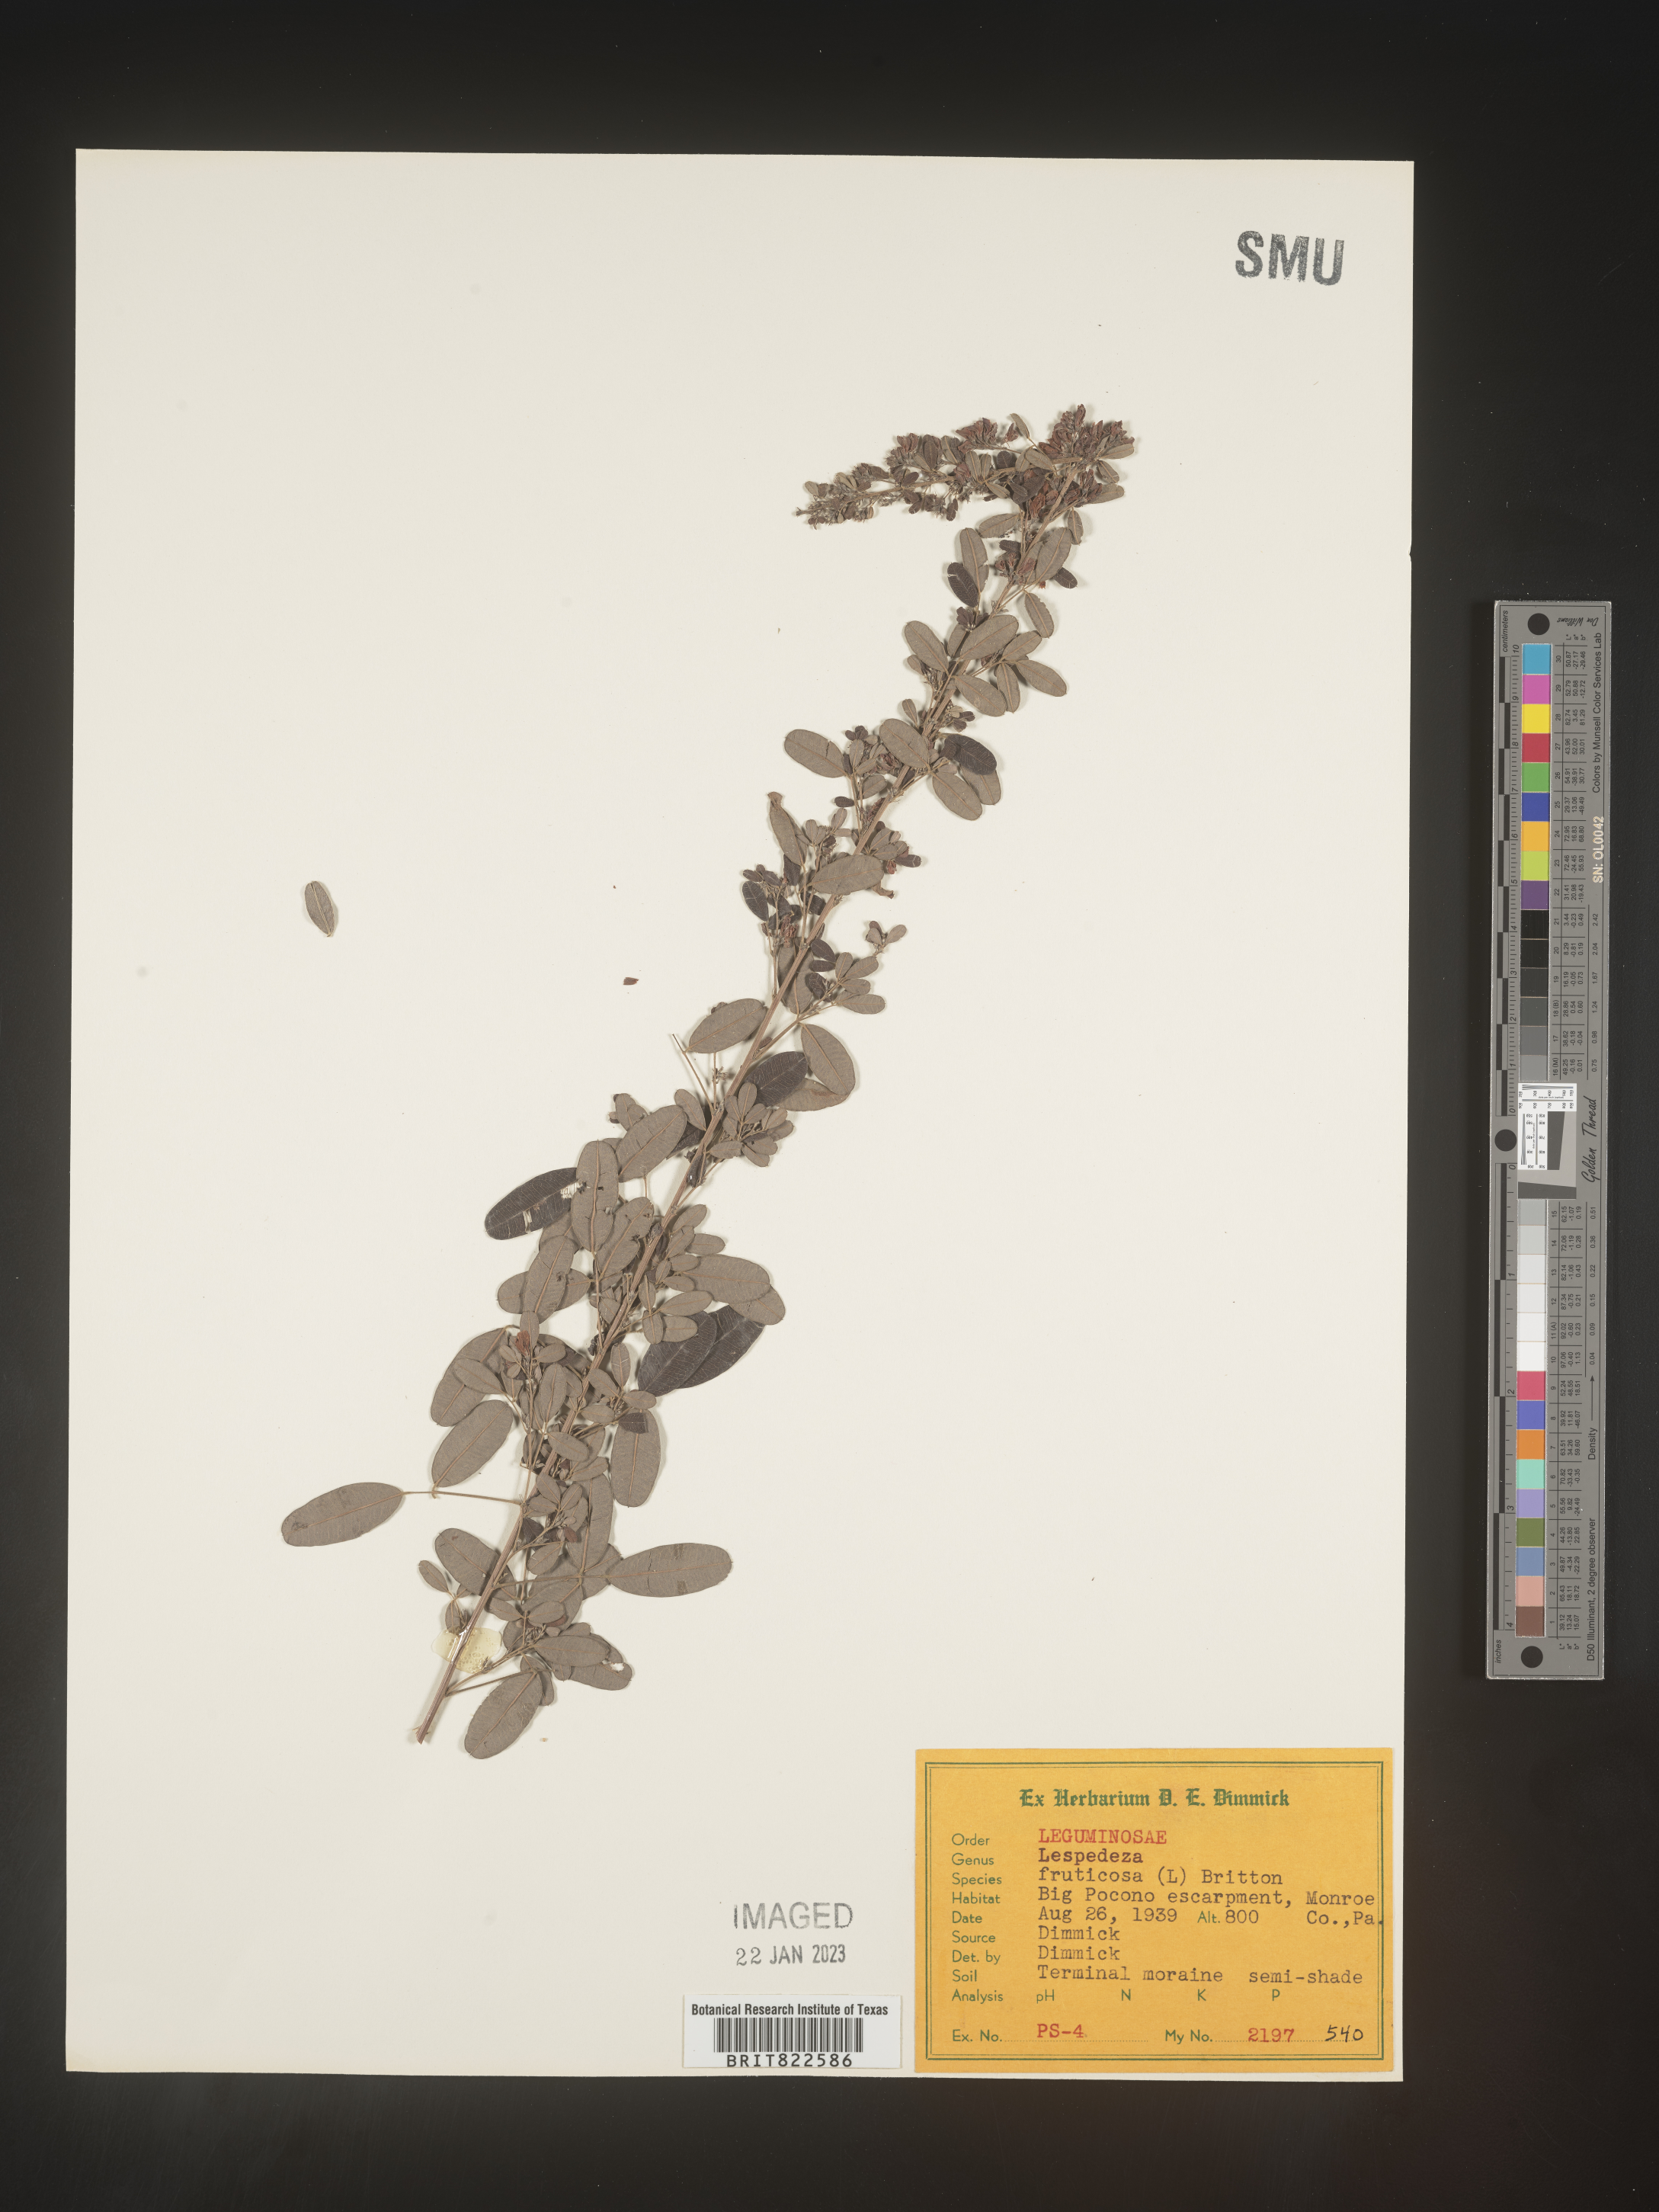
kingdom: Plantae
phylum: Tracheophyta
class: Magnoliopsida
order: Fabales
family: Fabaceae
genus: Lespedeza
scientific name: Lespedeza violacea
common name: Wand bush-clover
